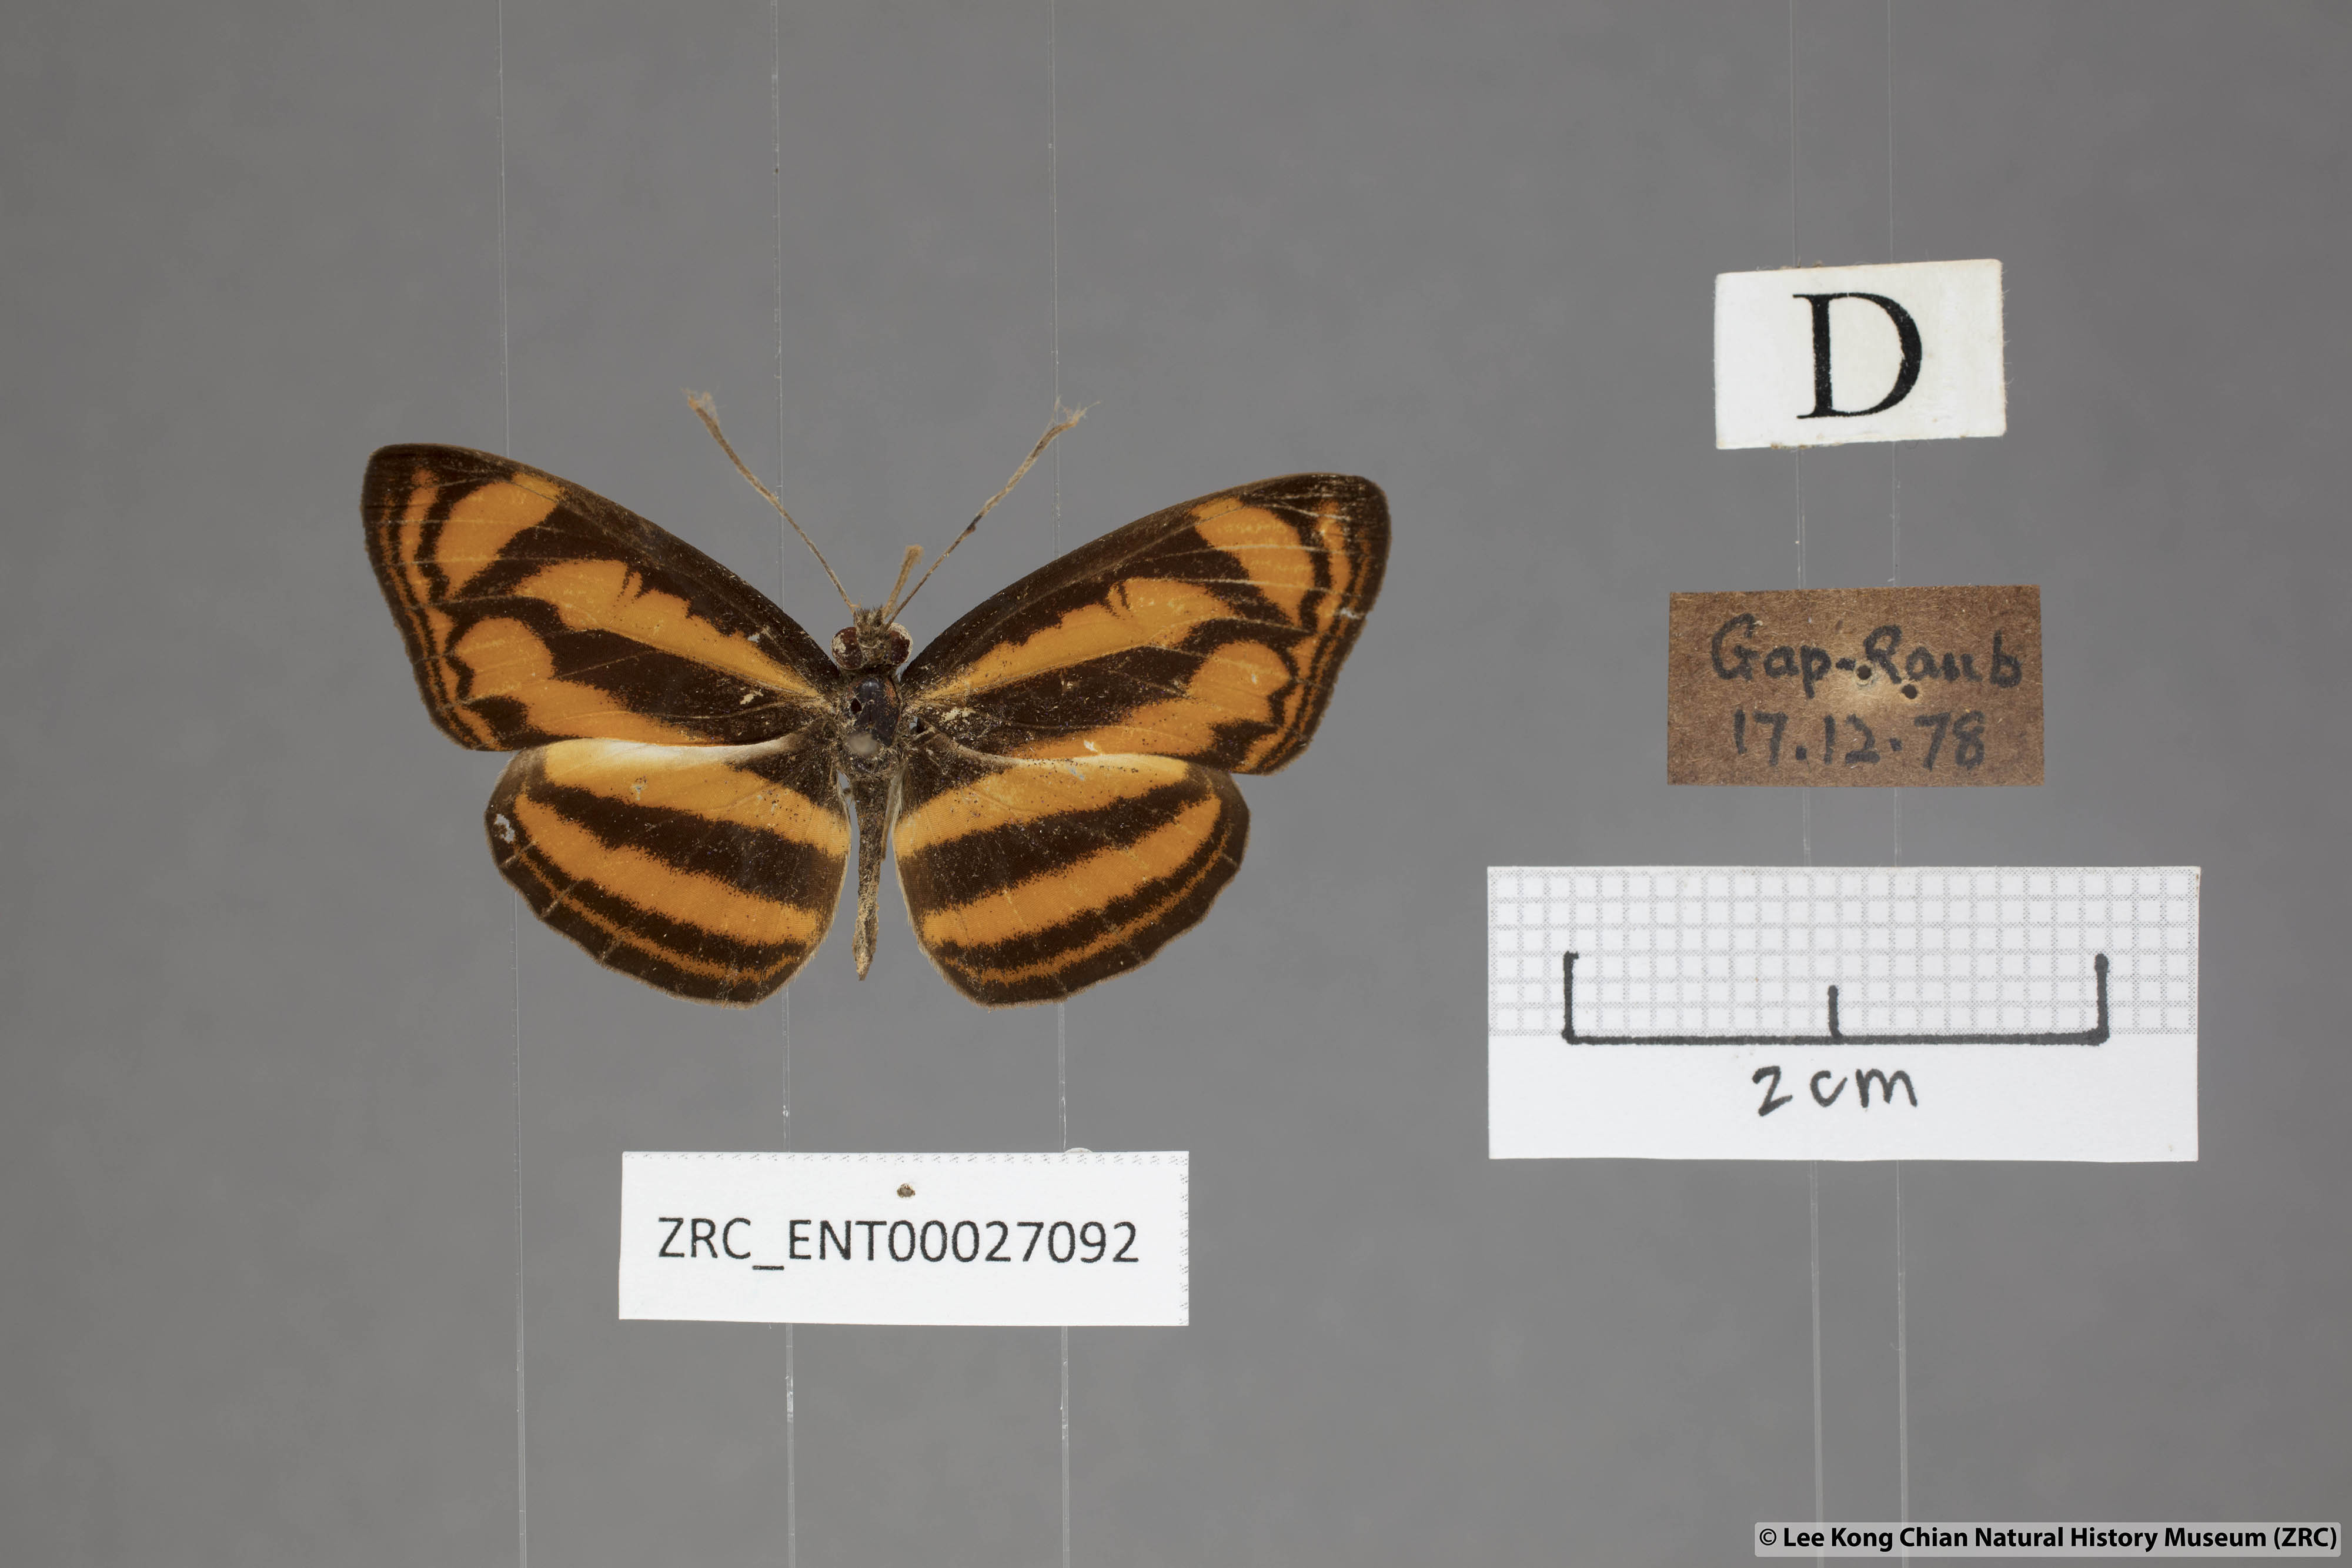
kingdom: Animalia
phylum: Arthropoda
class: Insecta
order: Lepidoptera
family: Nymphalidae
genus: Lasippa
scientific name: Lasippa tiga
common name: Malayan lascar
